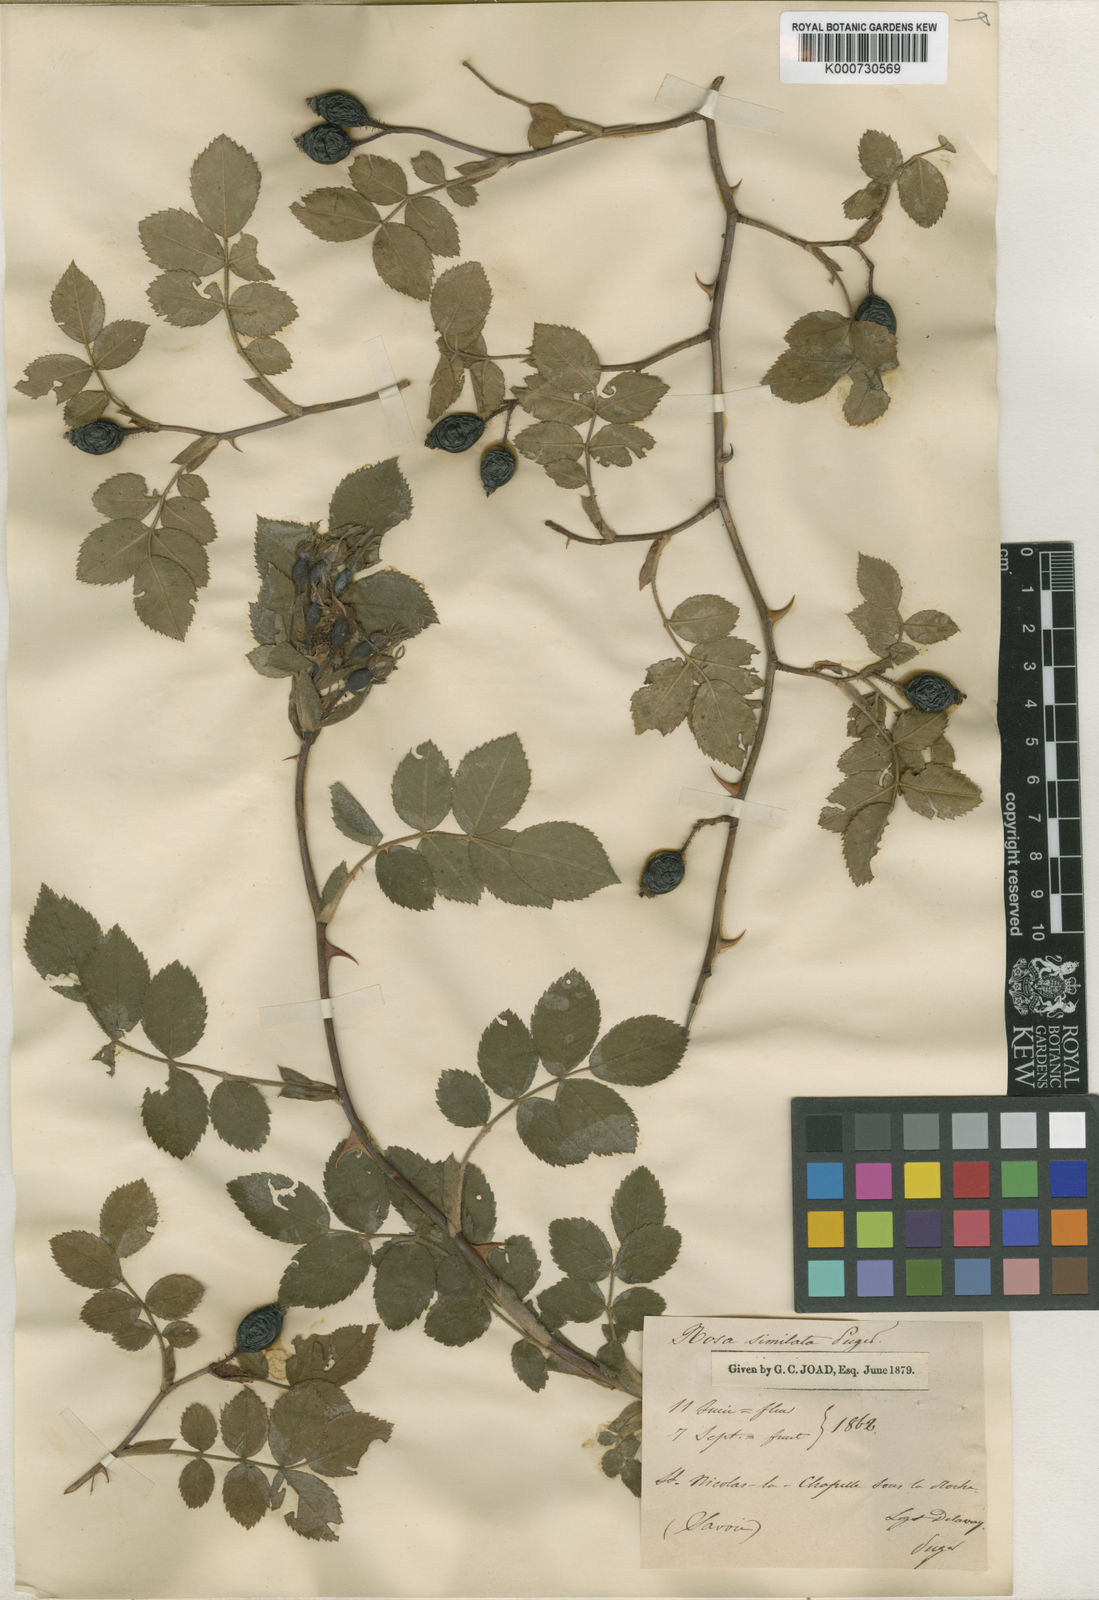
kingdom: Plantae
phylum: Tracheophyta
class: Magnoliopsida
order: Rosales
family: Rosaceae
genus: Rosa
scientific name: Rosa
